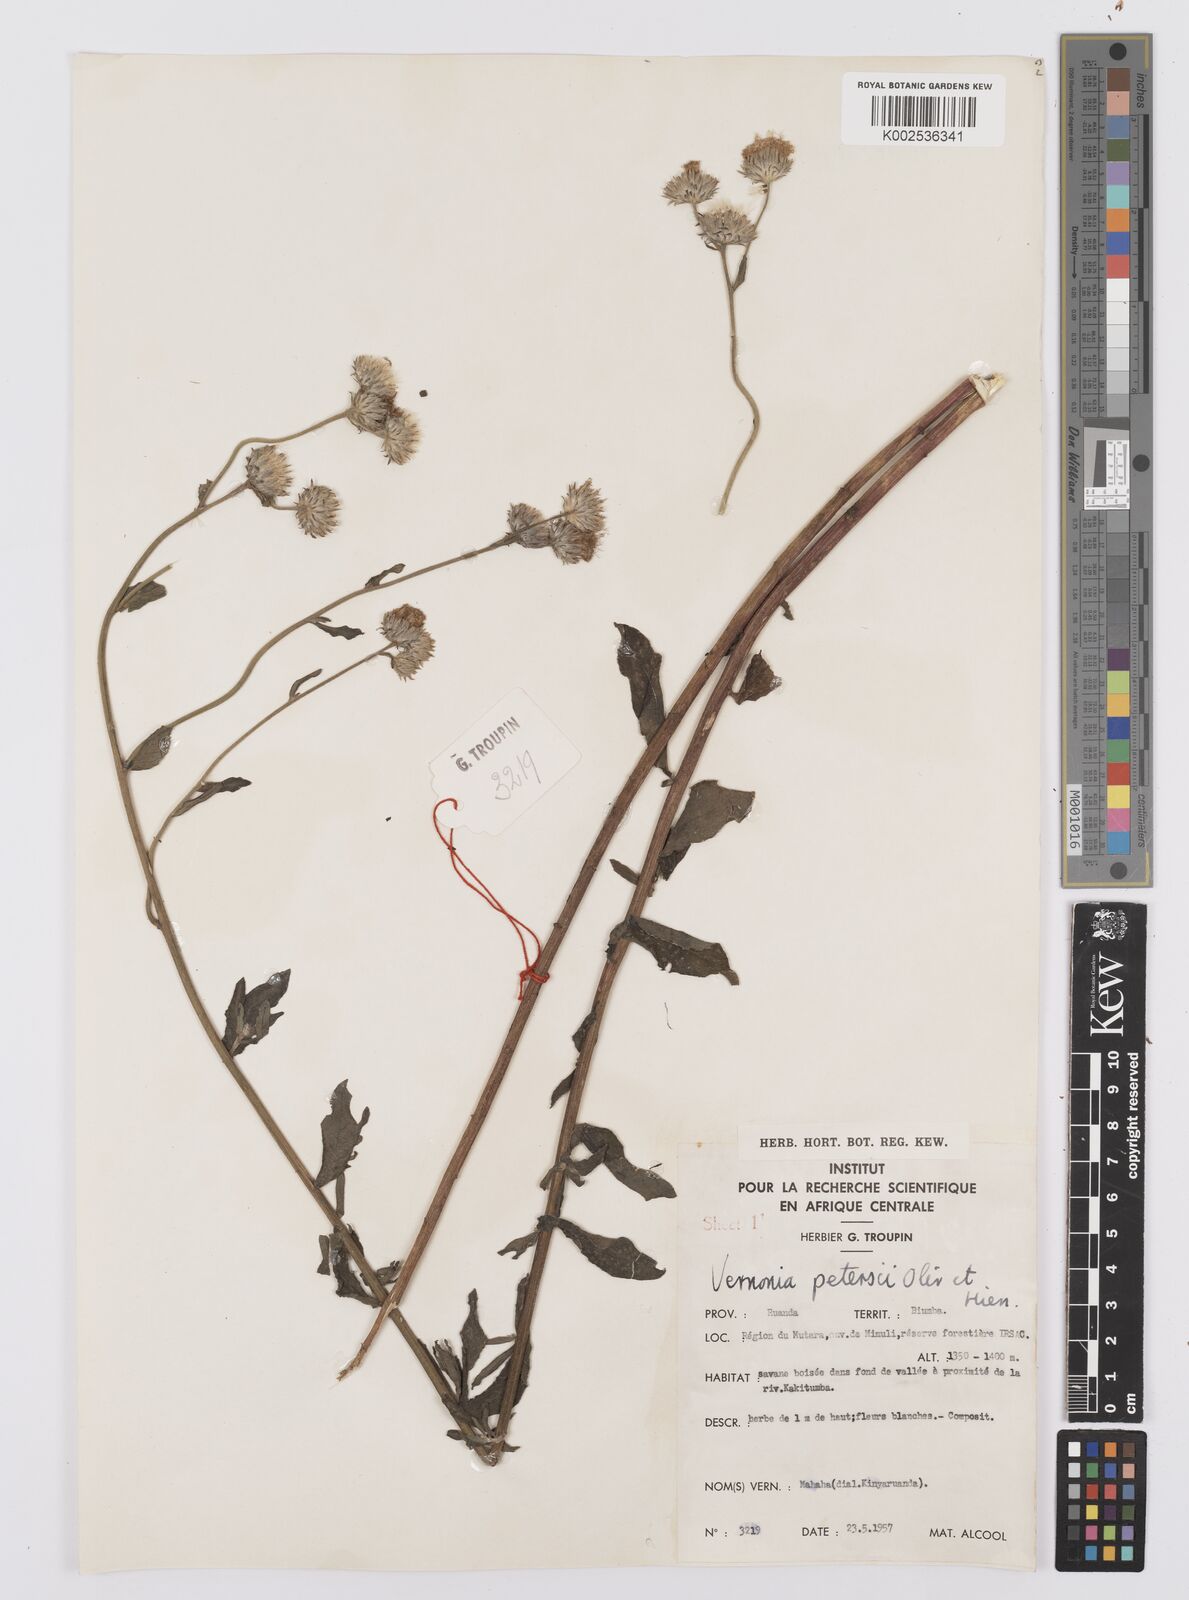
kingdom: Plantae
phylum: Tracheophyta
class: Magnoliopsida
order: Asterales
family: Asteraceae
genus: Vernoniastrum
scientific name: Vernoniastrum latifolium
